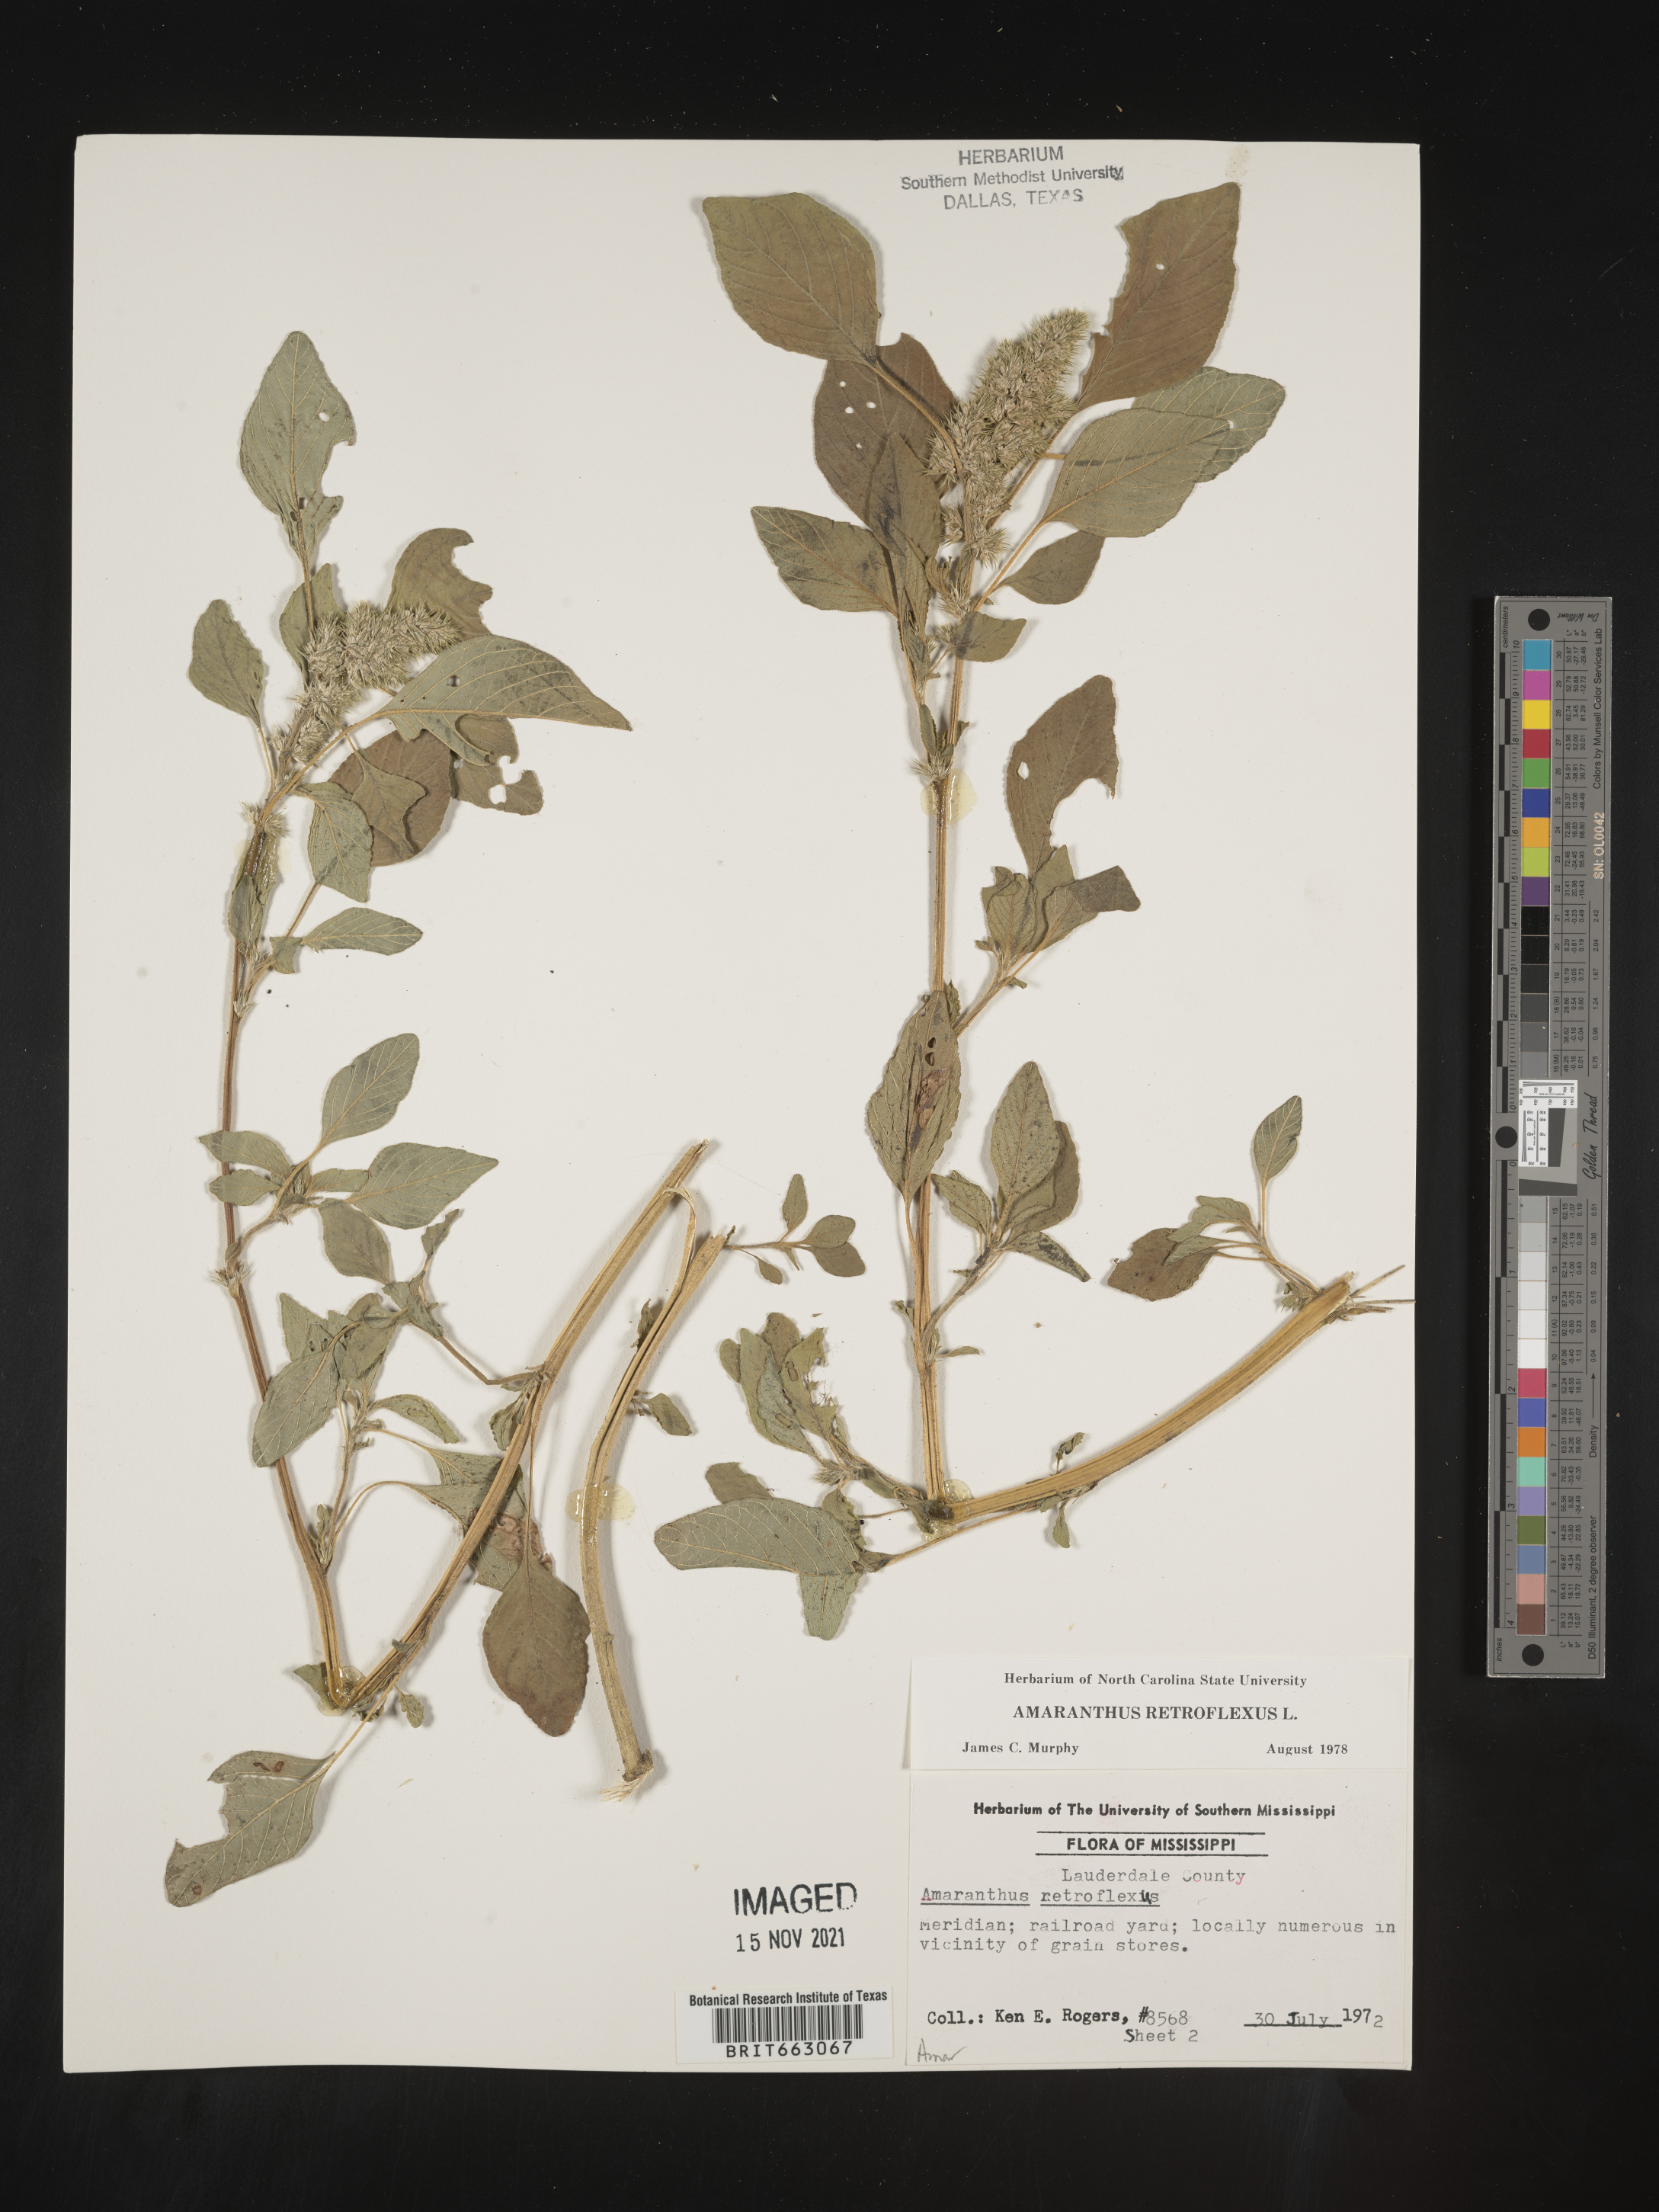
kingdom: Plantae
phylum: Tracheophyta
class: Magnoliopsida
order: Caryophyllales
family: Amaranthaceae
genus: Amaranthus
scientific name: Amaranthus retroflexus
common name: Redroot amaranth
